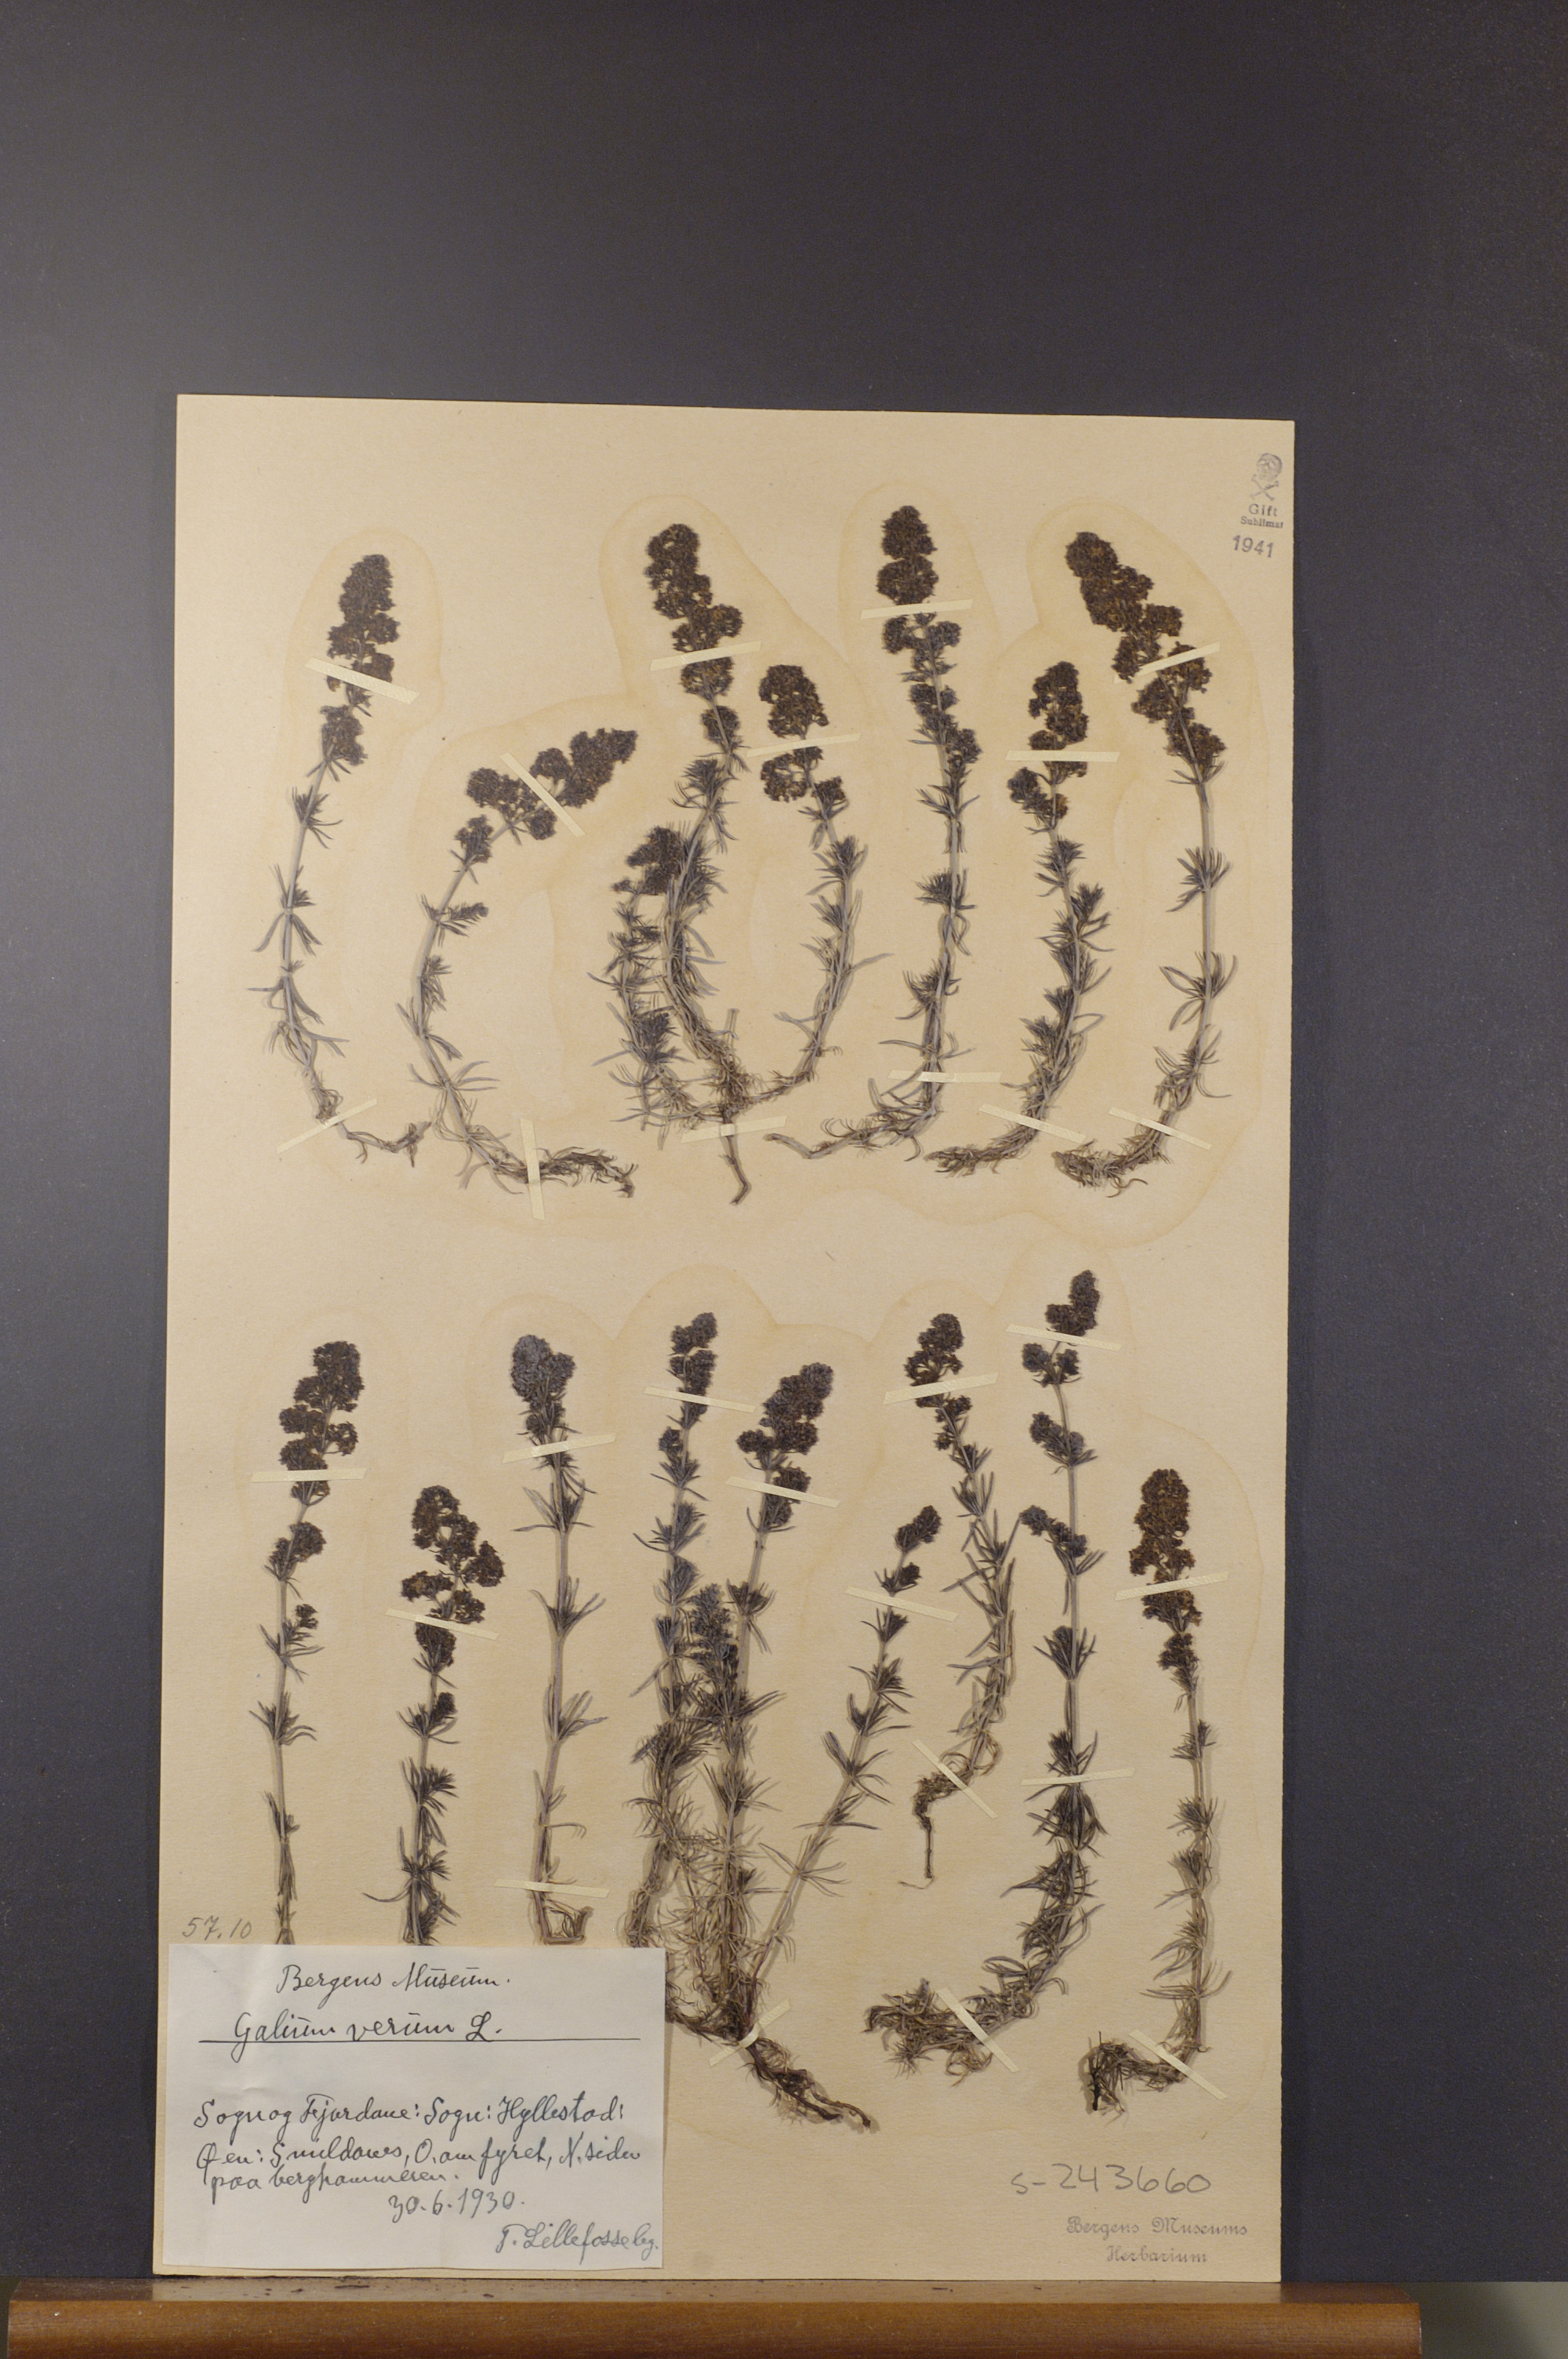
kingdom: Plantae
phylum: Tracheophyta
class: Magnoliopsida
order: Gentianales
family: Rubiaceae
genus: Galium
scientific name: Galium verum
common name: Lady's bedstraw
